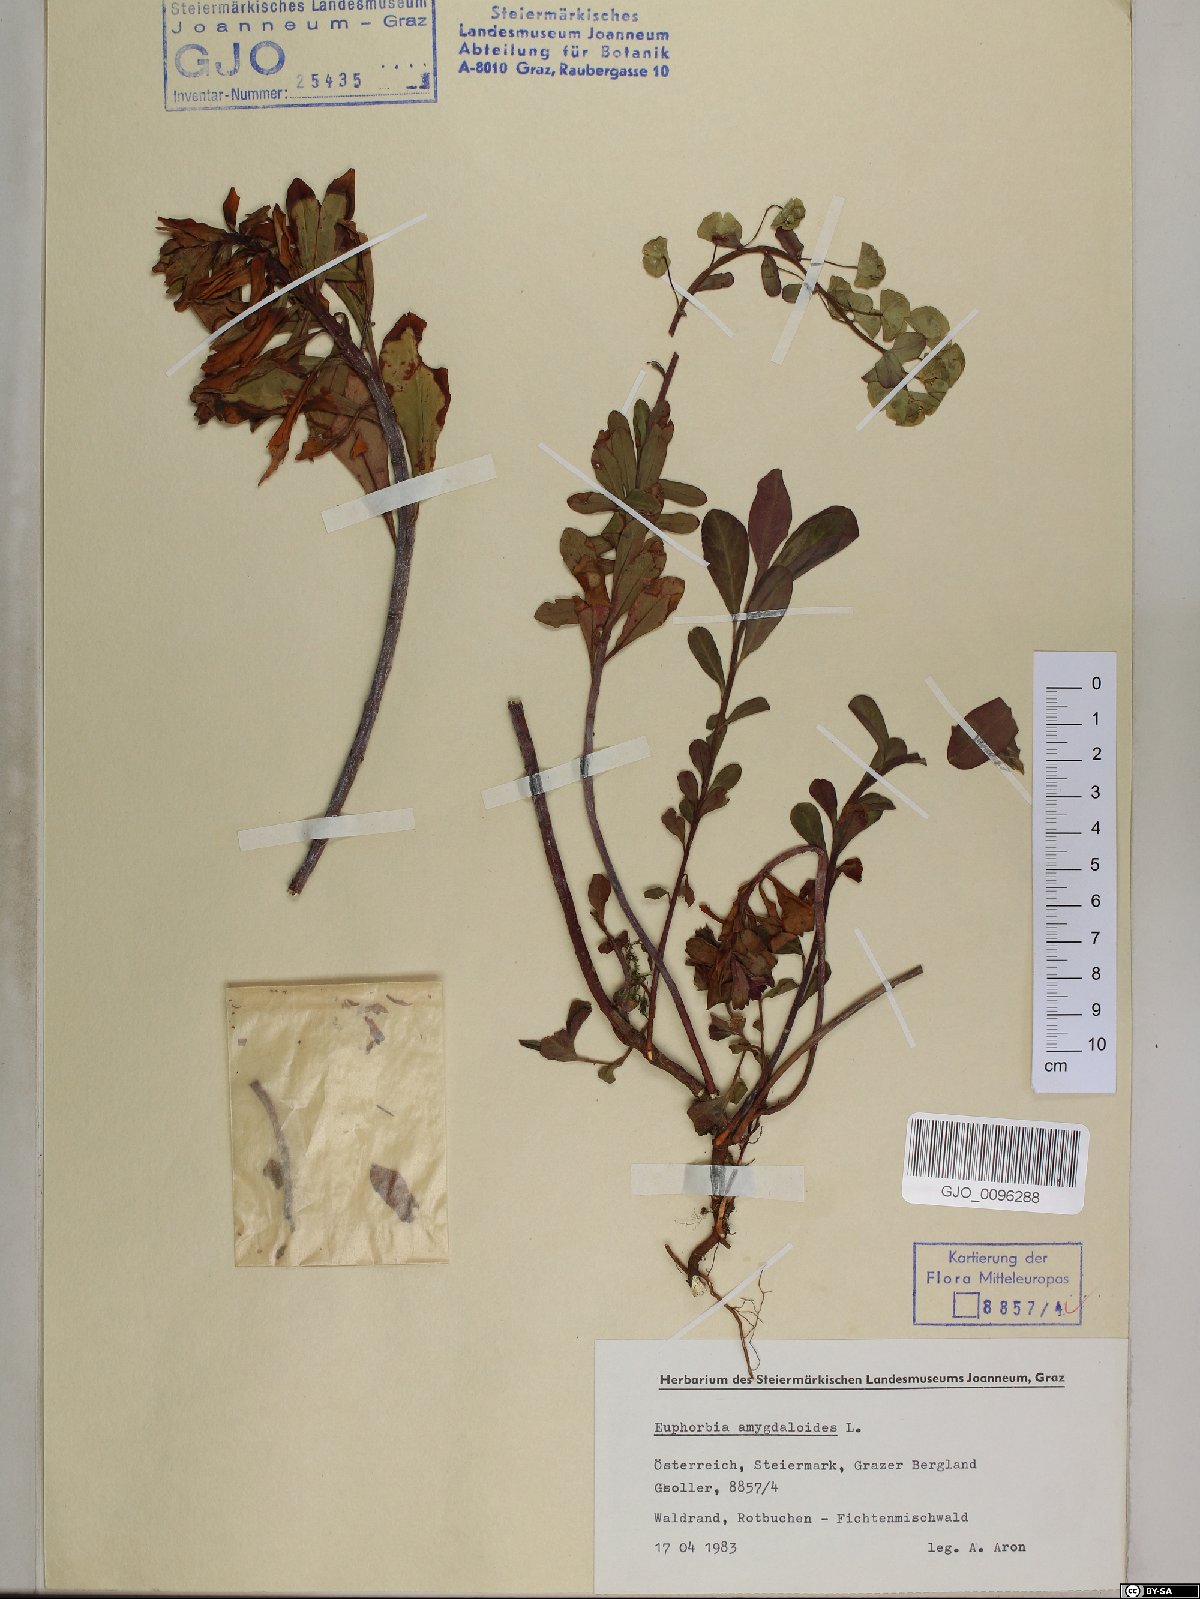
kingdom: Plantae
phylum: Tracheophyta
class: Magnoliopsida
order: Malpighiales
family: Euphorbiaceae
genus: Euphorbia
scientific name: Euphorbia amygdaloides
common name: Wood spurge
